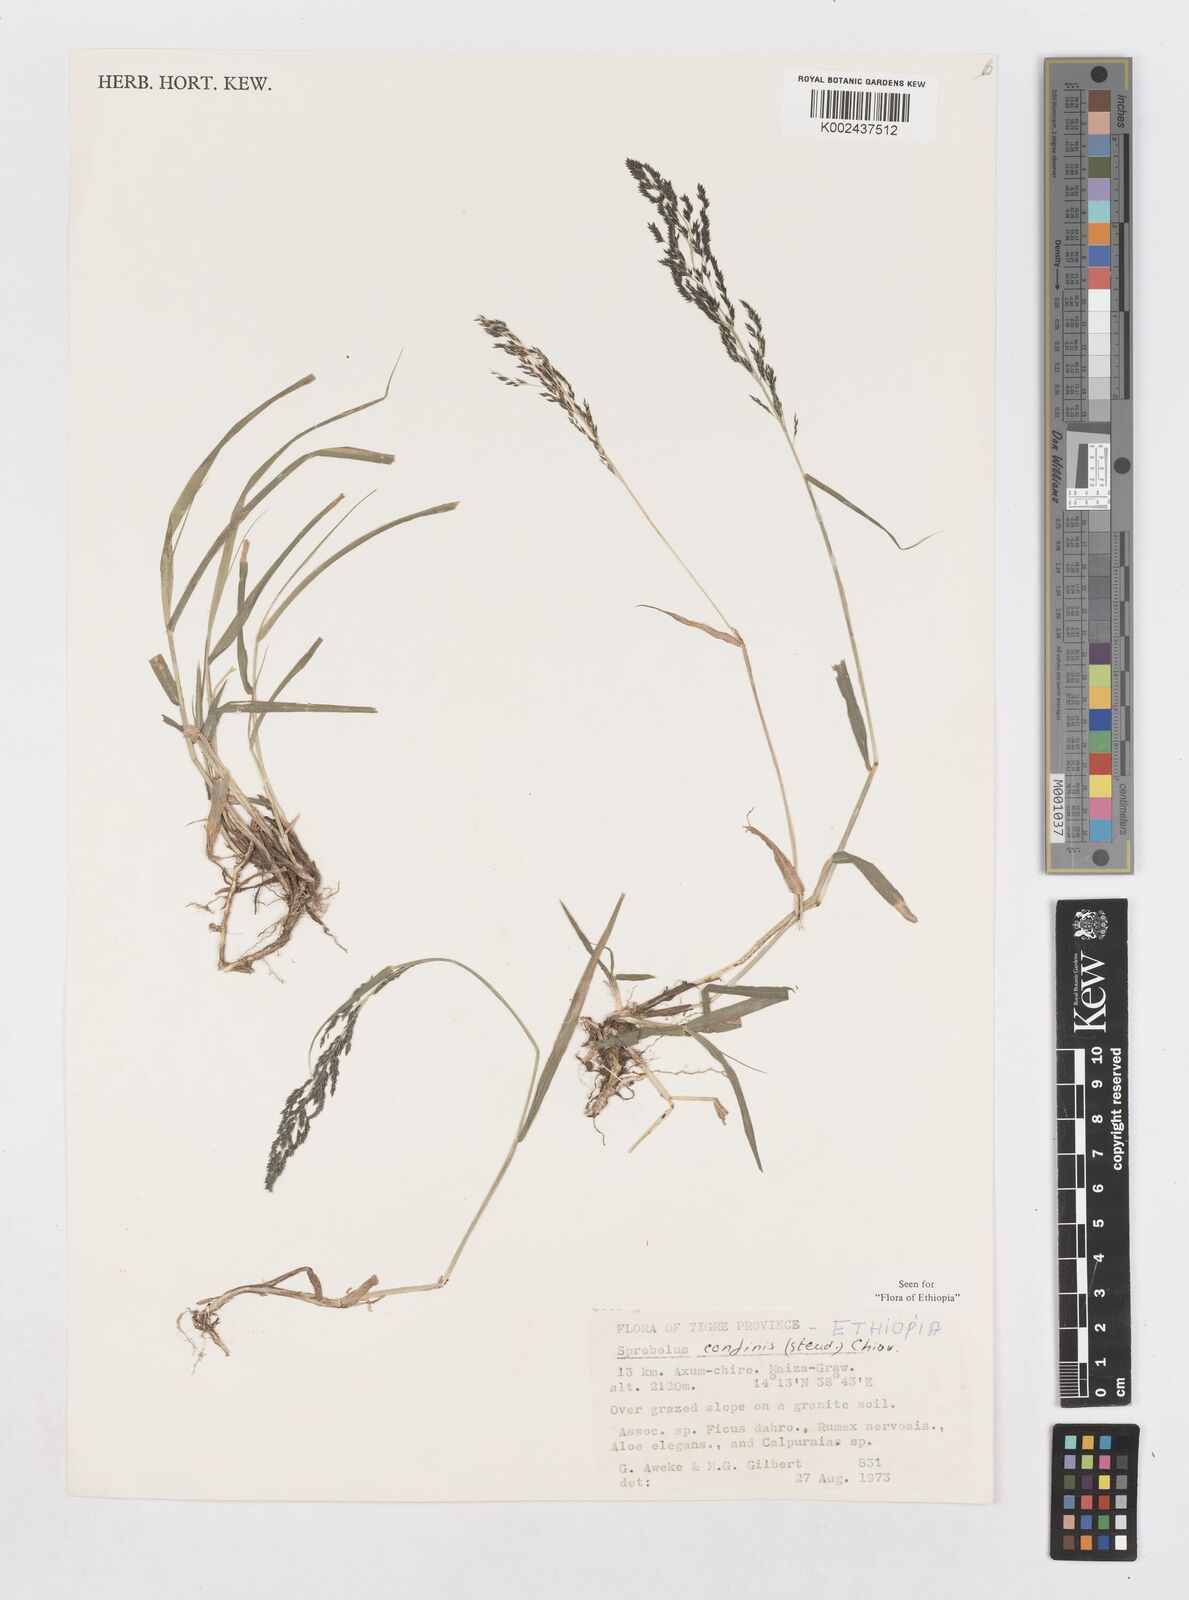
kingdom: Plantae
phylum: Tracheophyta
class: Liliopsida
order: Poales
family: Poaceae
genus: Sporobolus
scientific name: Sporobolus confinis
